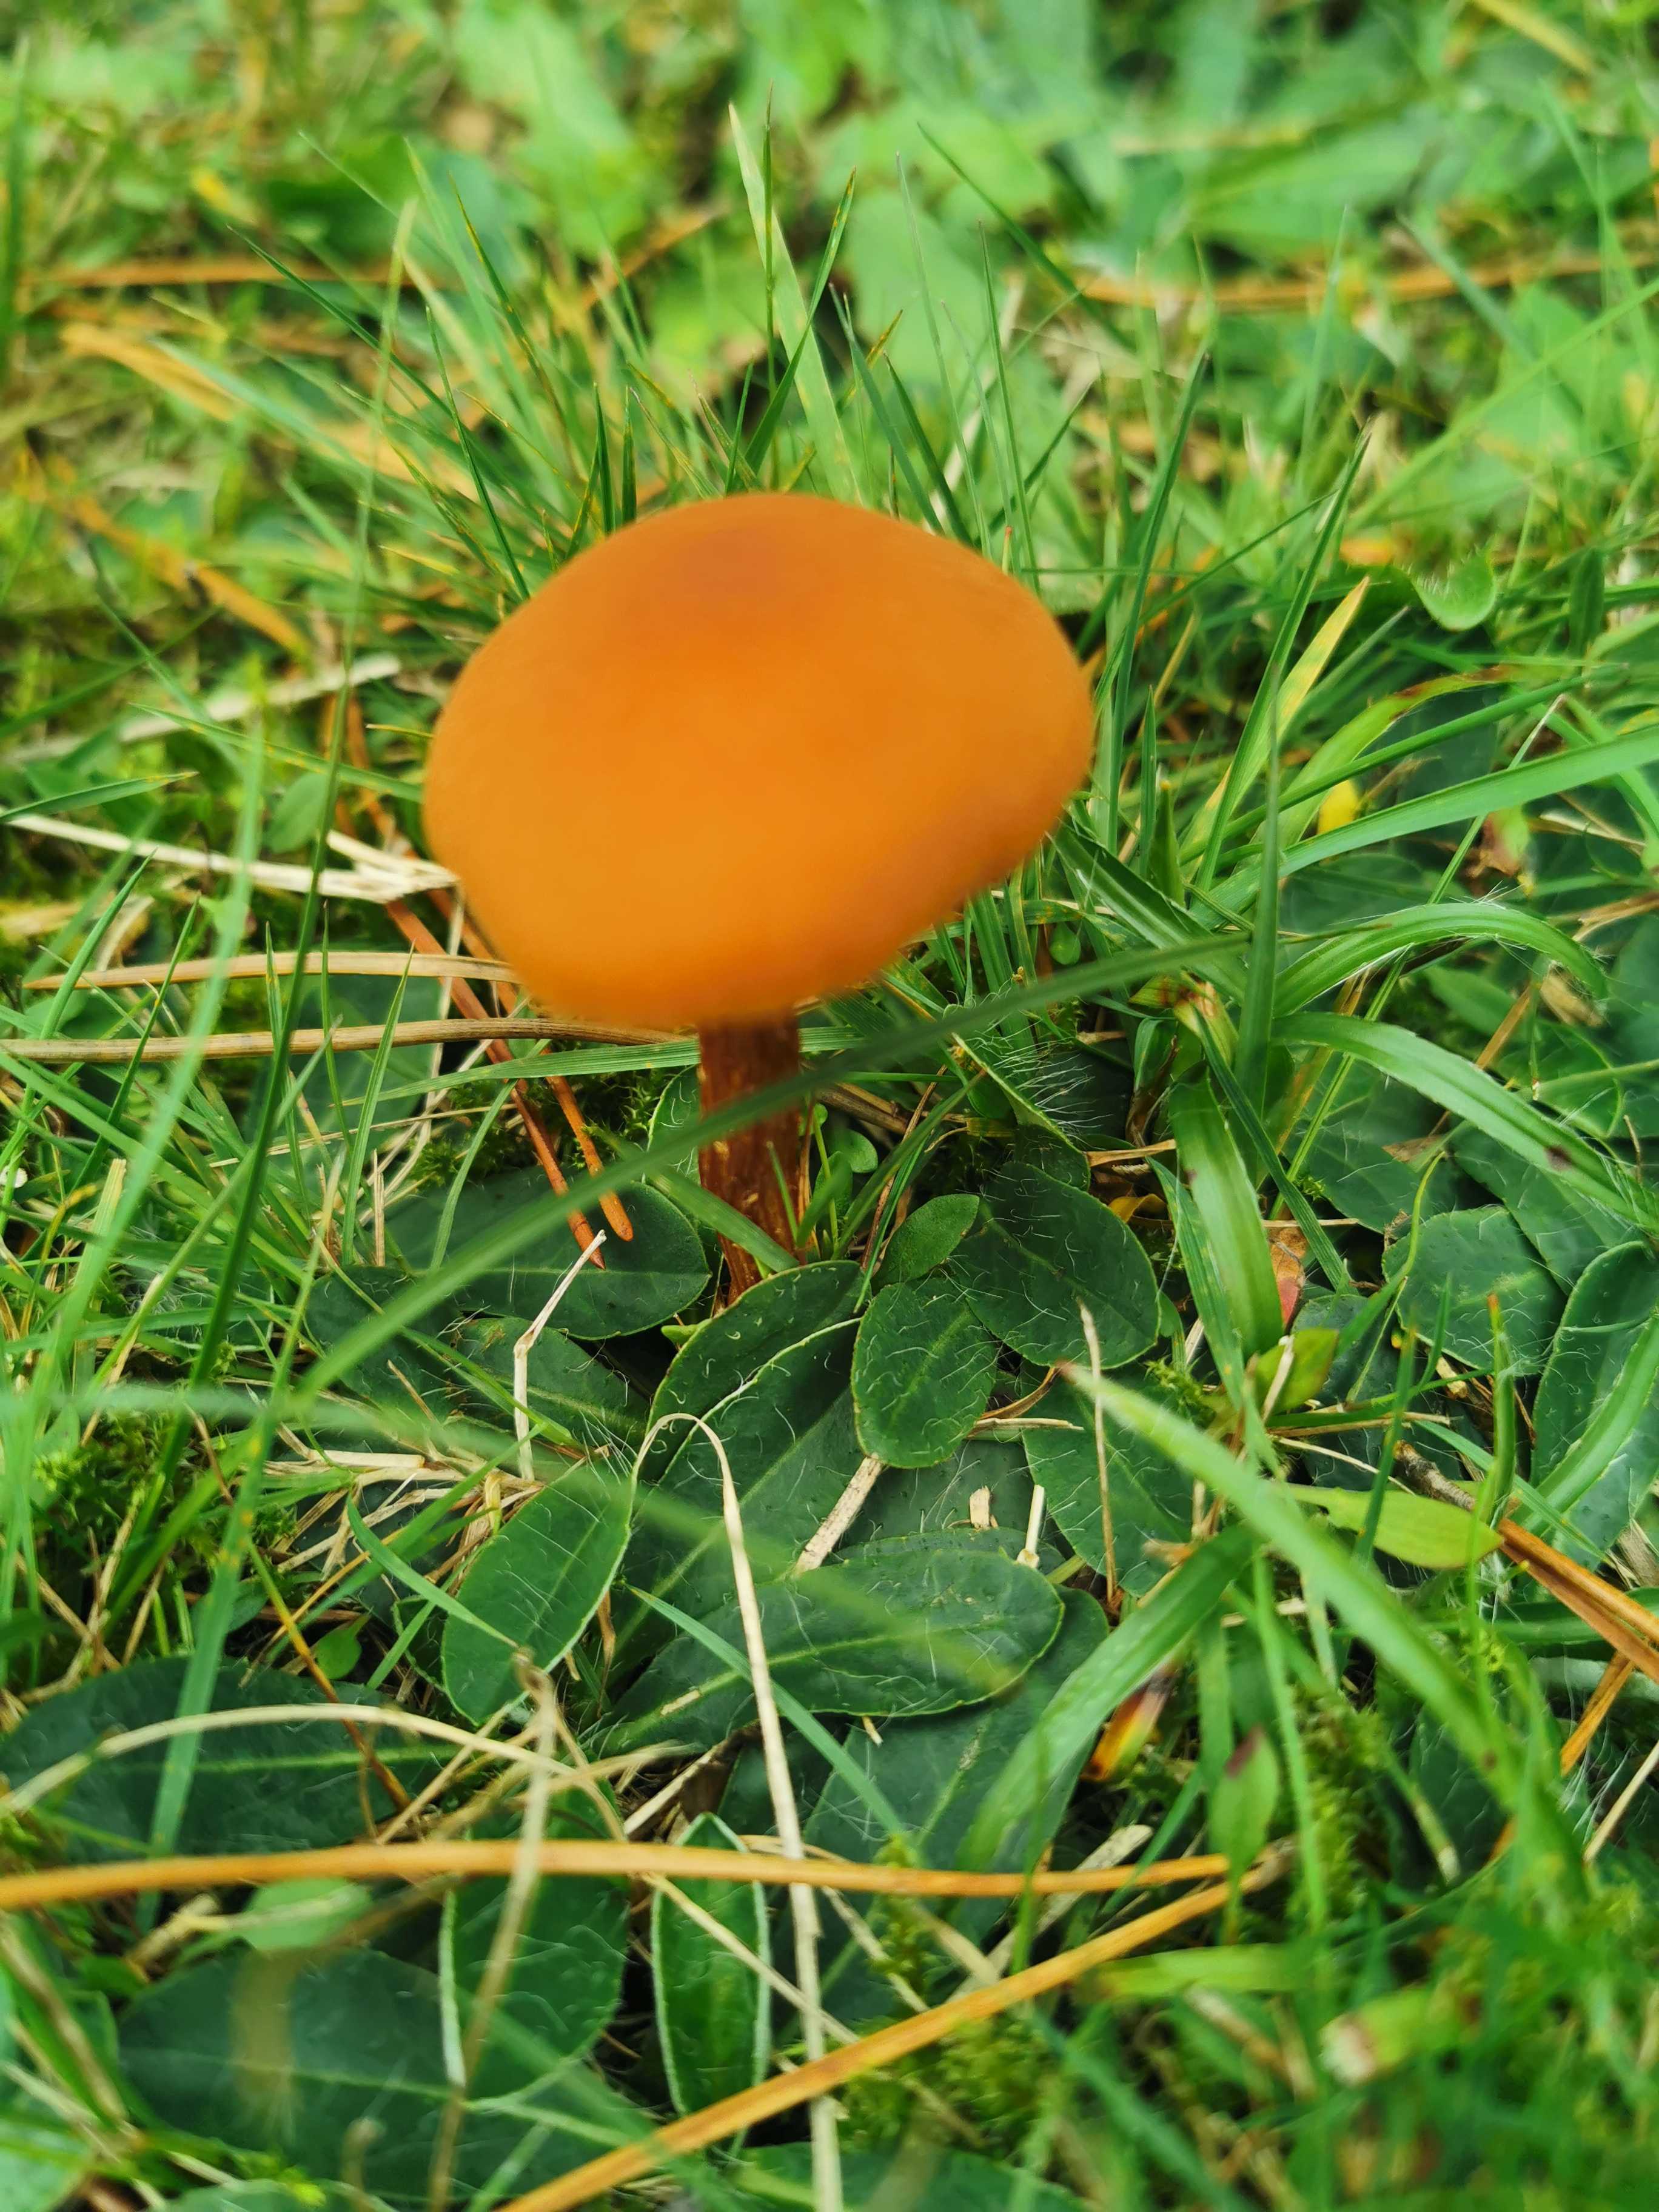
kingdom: Fungi
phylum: Basidiomycota
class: Agaricomycetes
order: Agaricales
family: Hygrophoraceae
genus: Hygrocybe
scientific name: Hygrocybe
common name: vokshat
